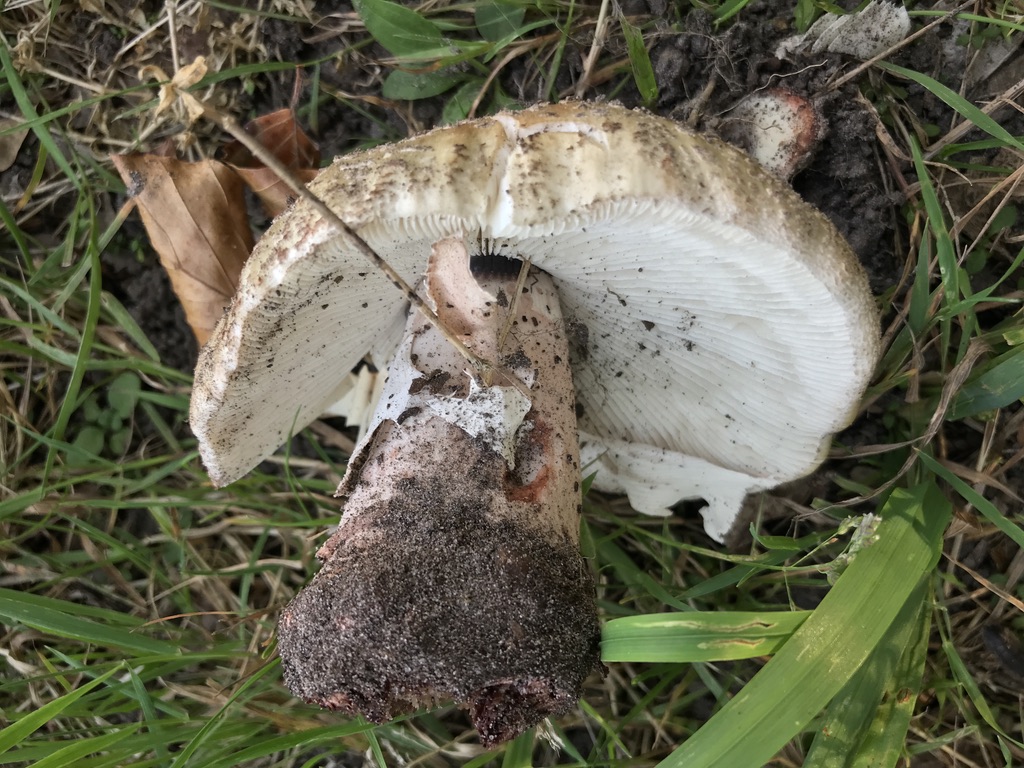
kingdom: Fungi
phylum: Basidiomycota
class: Agaricomycetes
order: Agaricales
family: Amanitaceae
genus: Amanita
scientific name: Amanita rubescens
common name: rødmende fluesvamp
